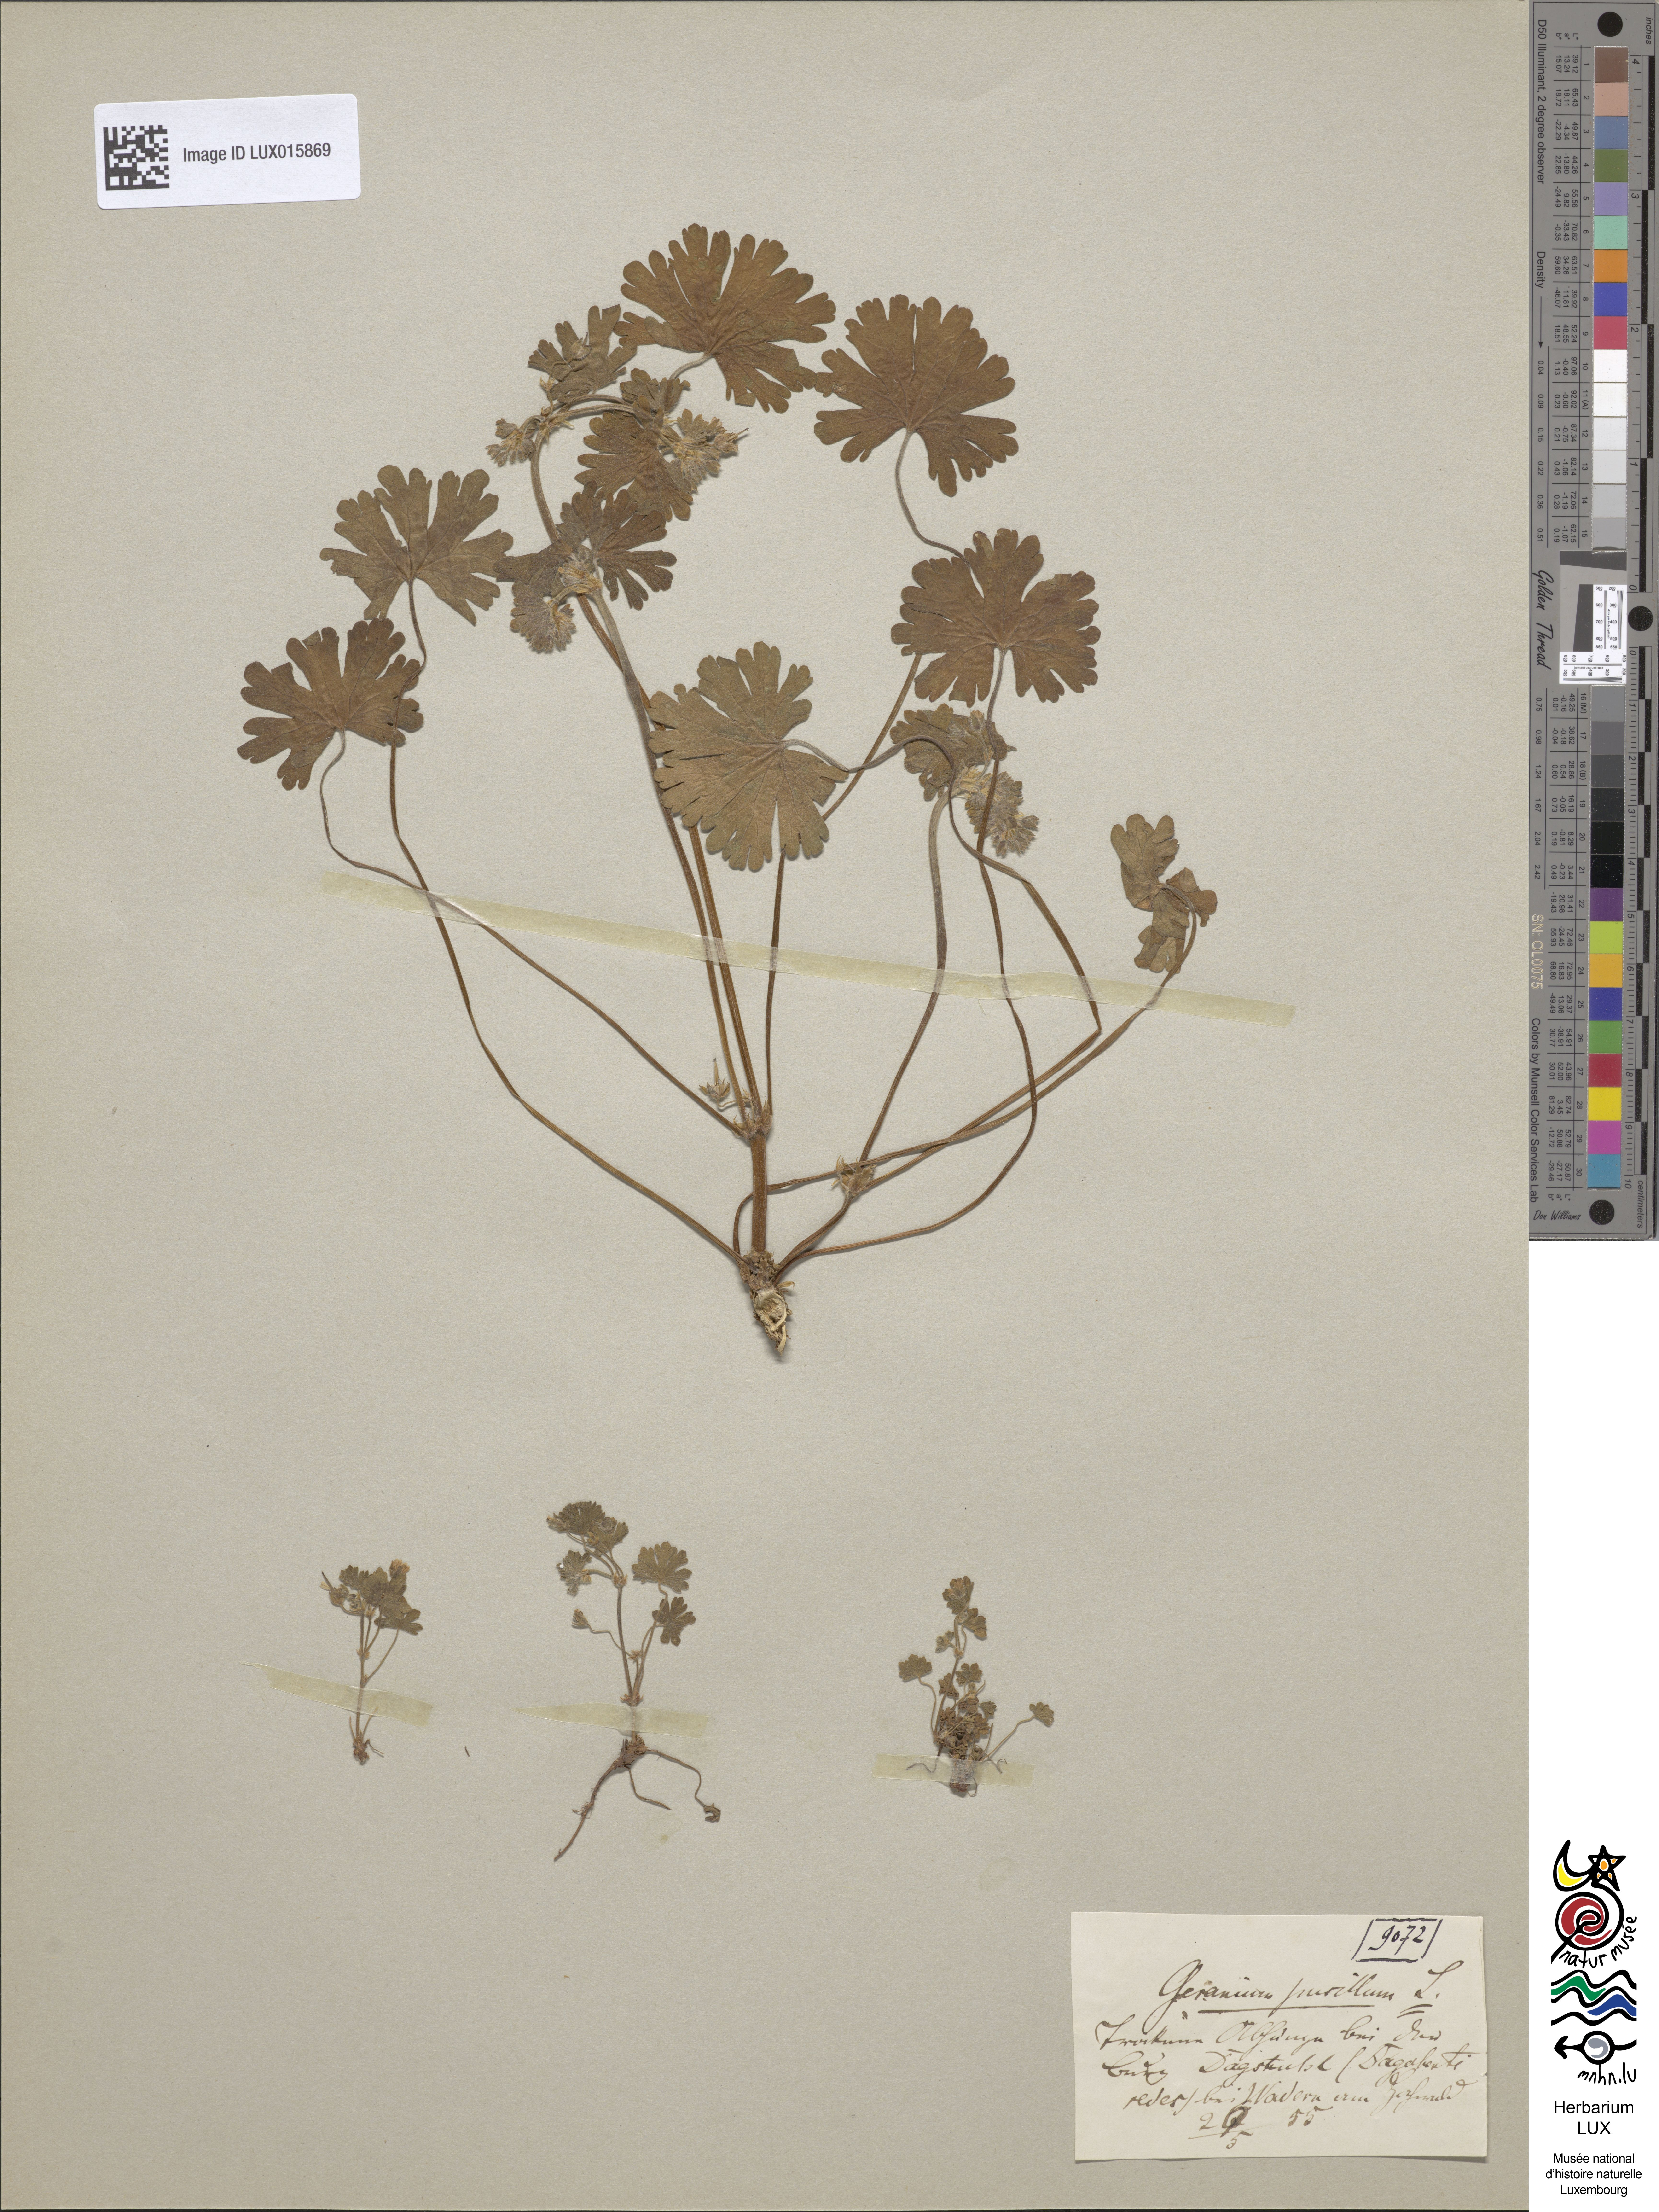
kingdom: Plantae
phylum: Tracheophyta
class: Magnoliopsida
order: Geraniales
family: Geraniaceae
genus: Geranium
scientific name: Geranium pusillum
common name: Small geranium
